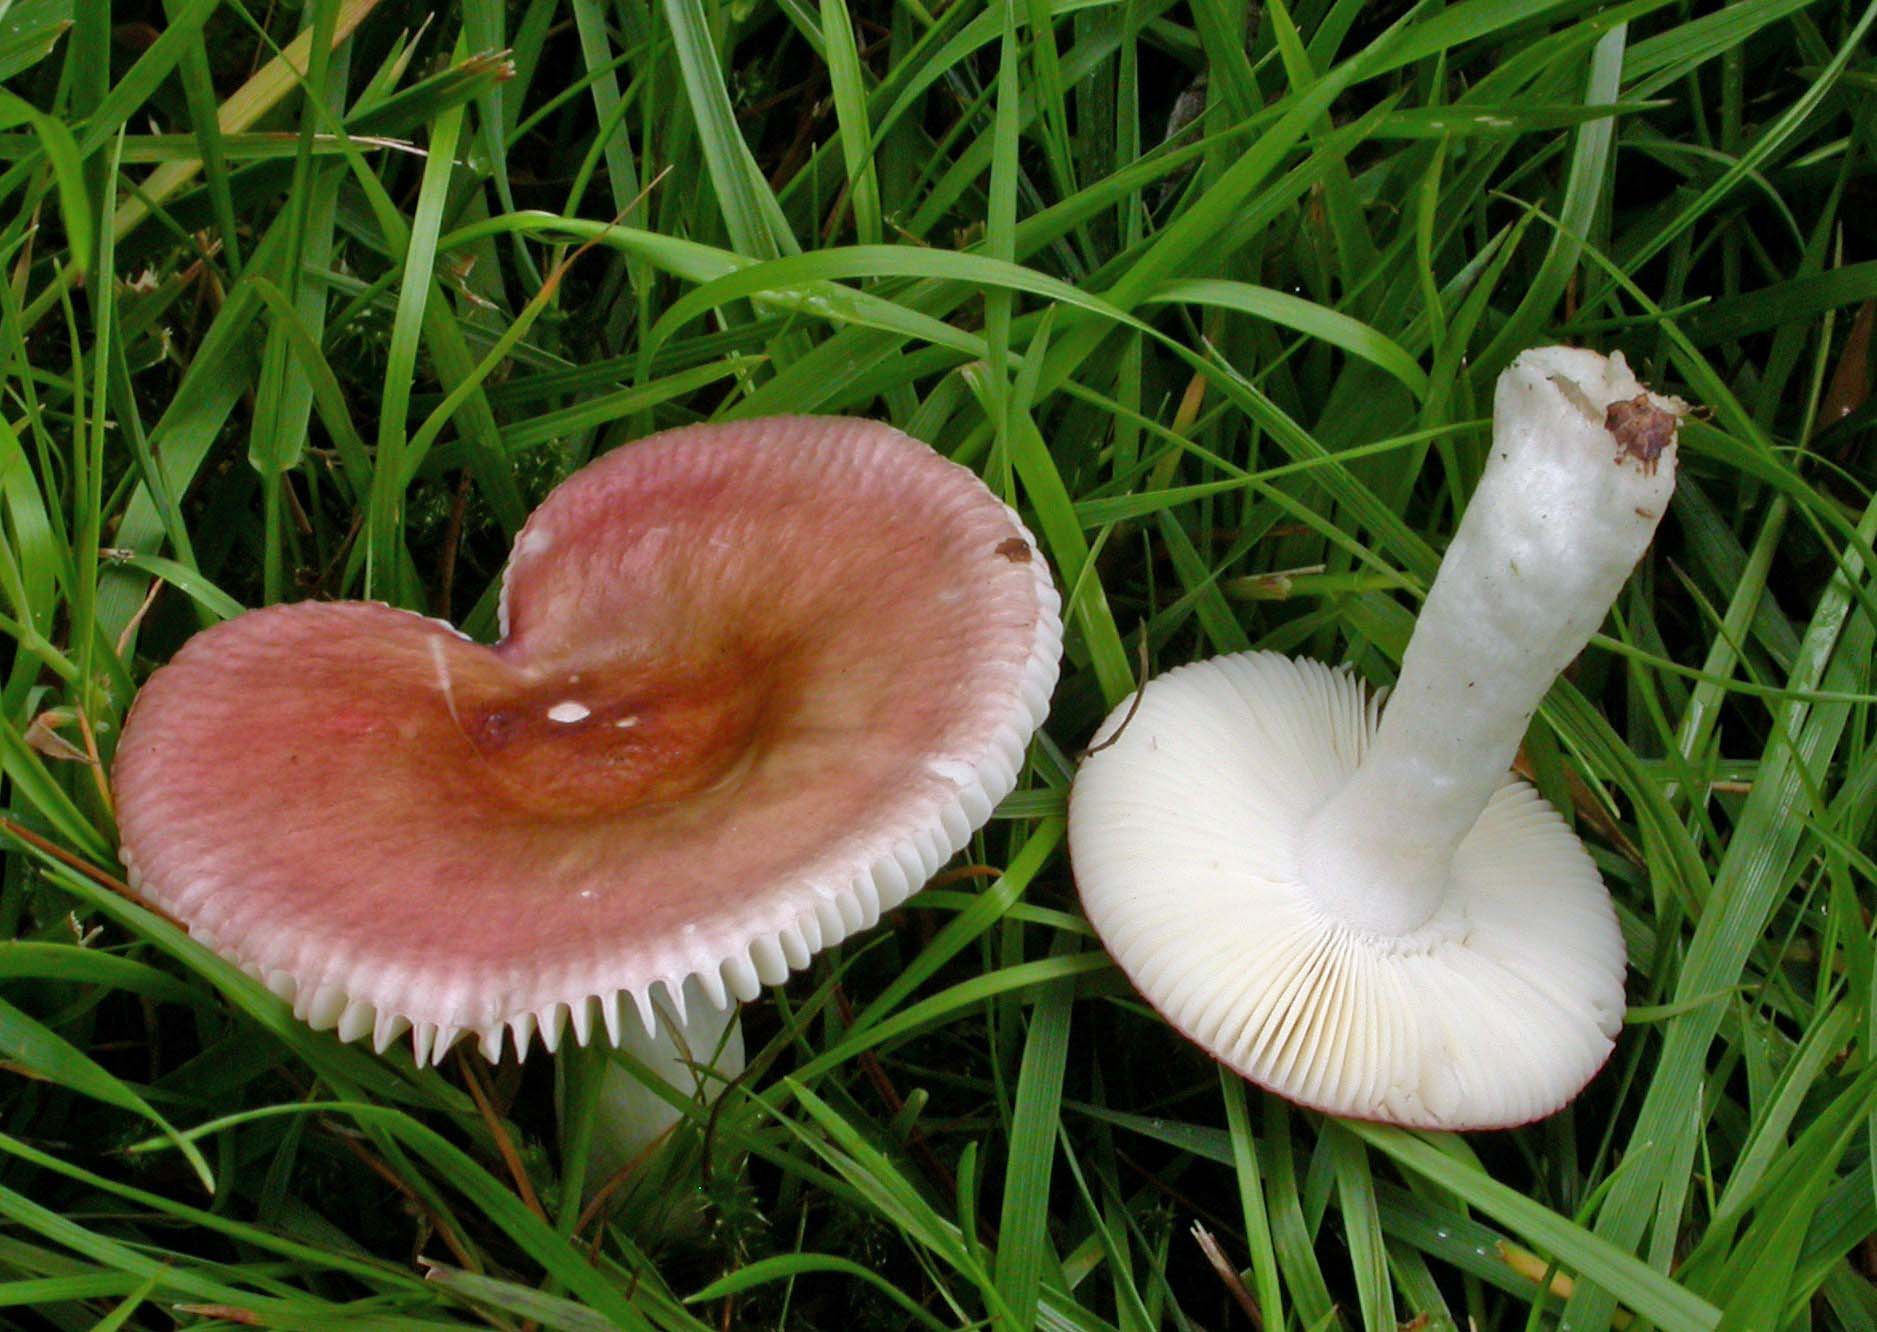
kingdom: Fungi
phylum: Basidiomycota
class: Agaricomycetes
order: Russulales
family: Russulaceae
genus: Russula
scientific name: Russula nitida
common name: året skørhat
